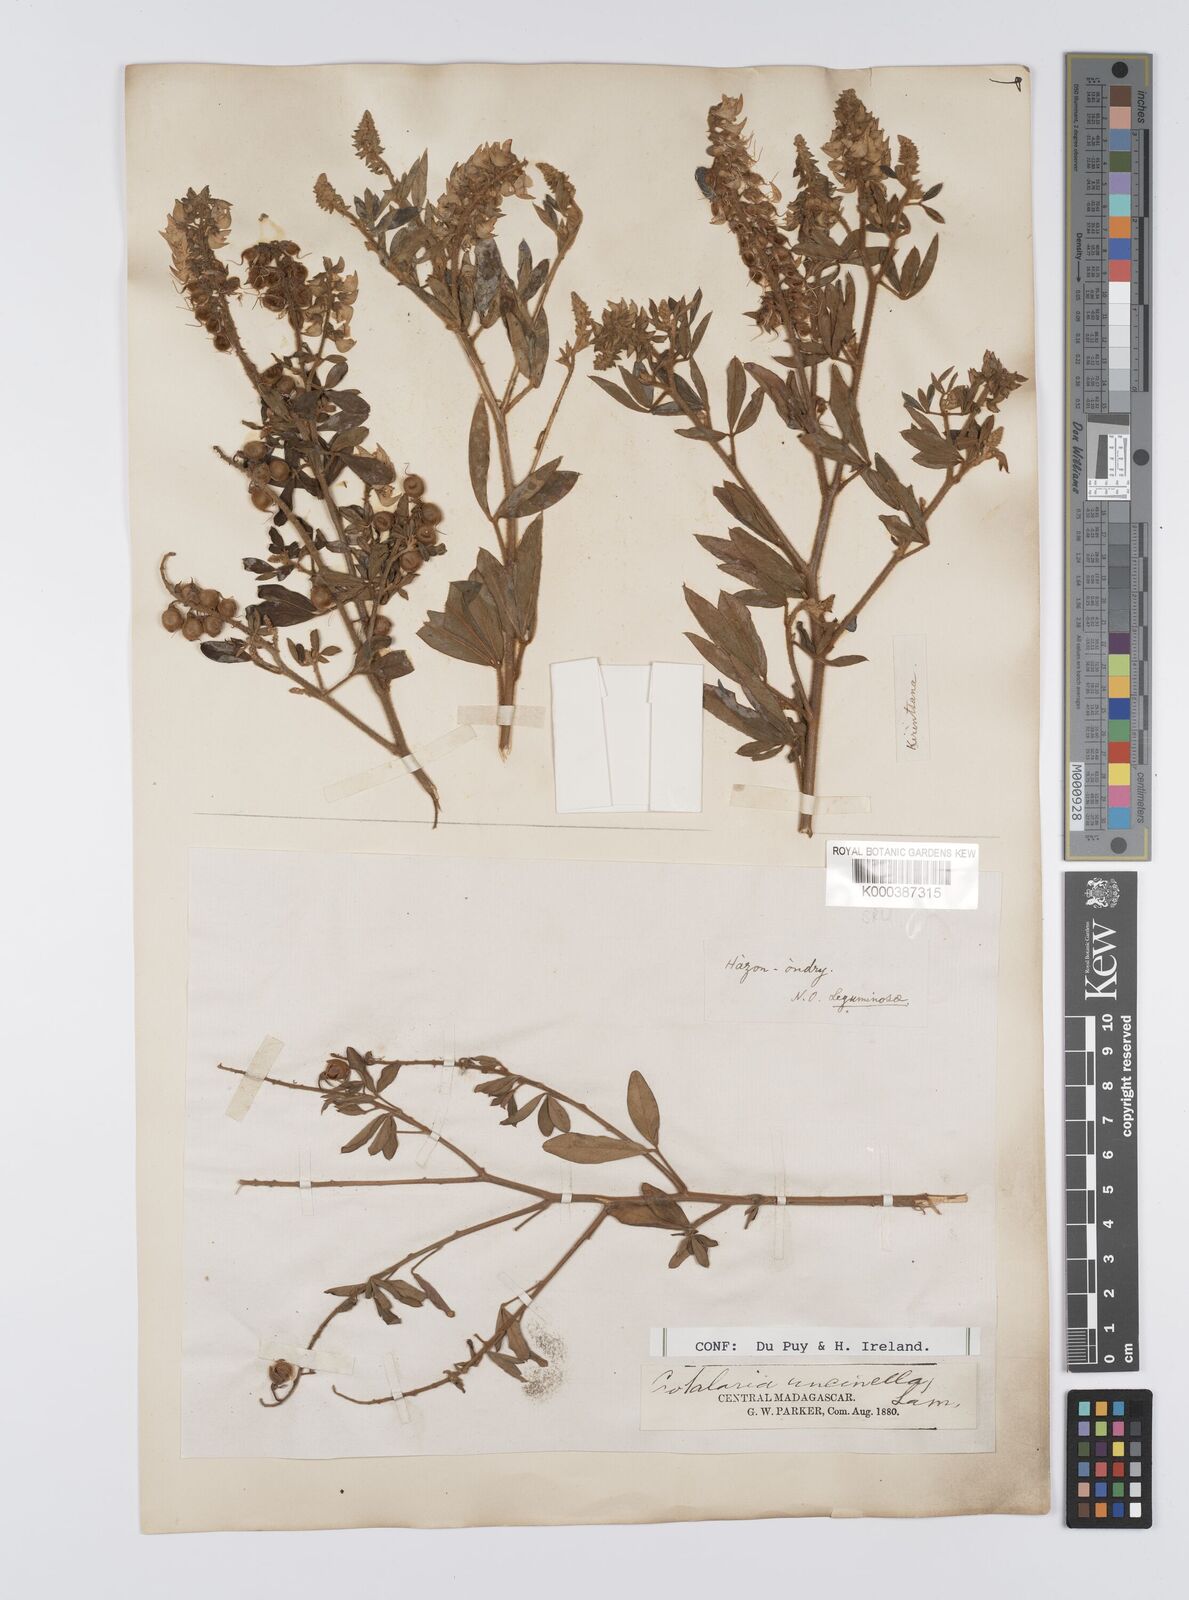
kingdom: Plantae
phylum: Tracheophyta
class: Magnoliopsida
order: Fabales
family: Fabaceae
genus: Crotalaria
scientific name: Crotalaria uncinella
